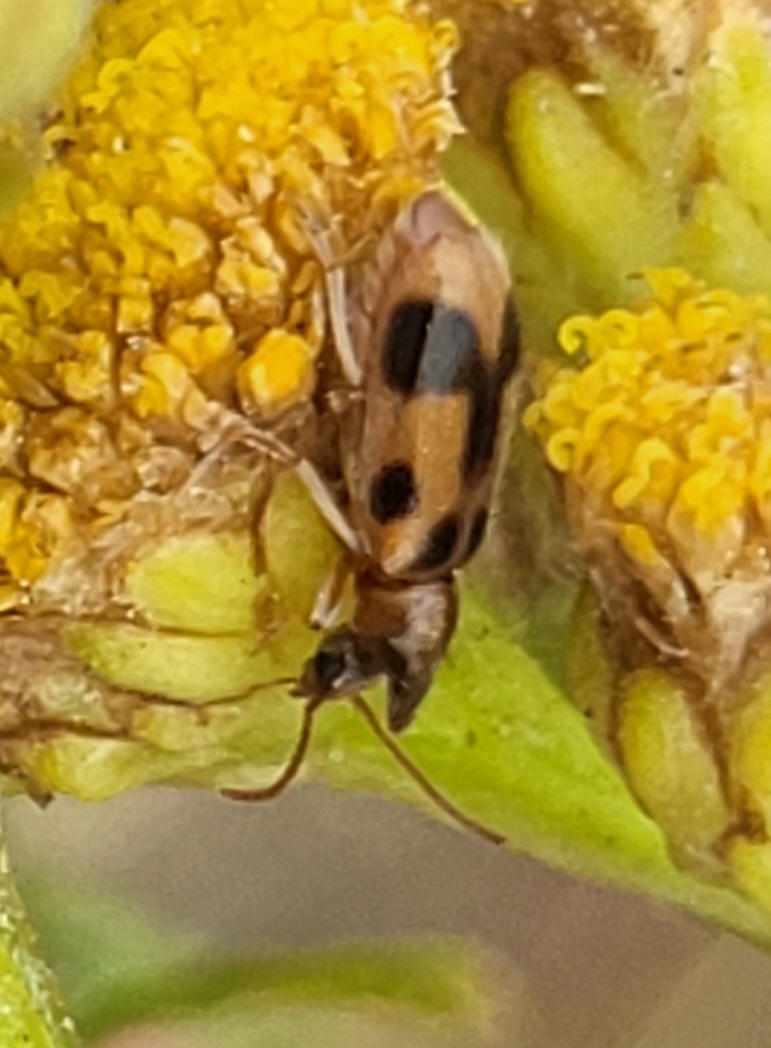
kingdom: Animalia
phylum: Arthropoda
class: Insecta
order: Coleoptera
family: Anthicidae
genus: Notoxus
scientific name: Notoxus monoceros
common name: Enhjørning
